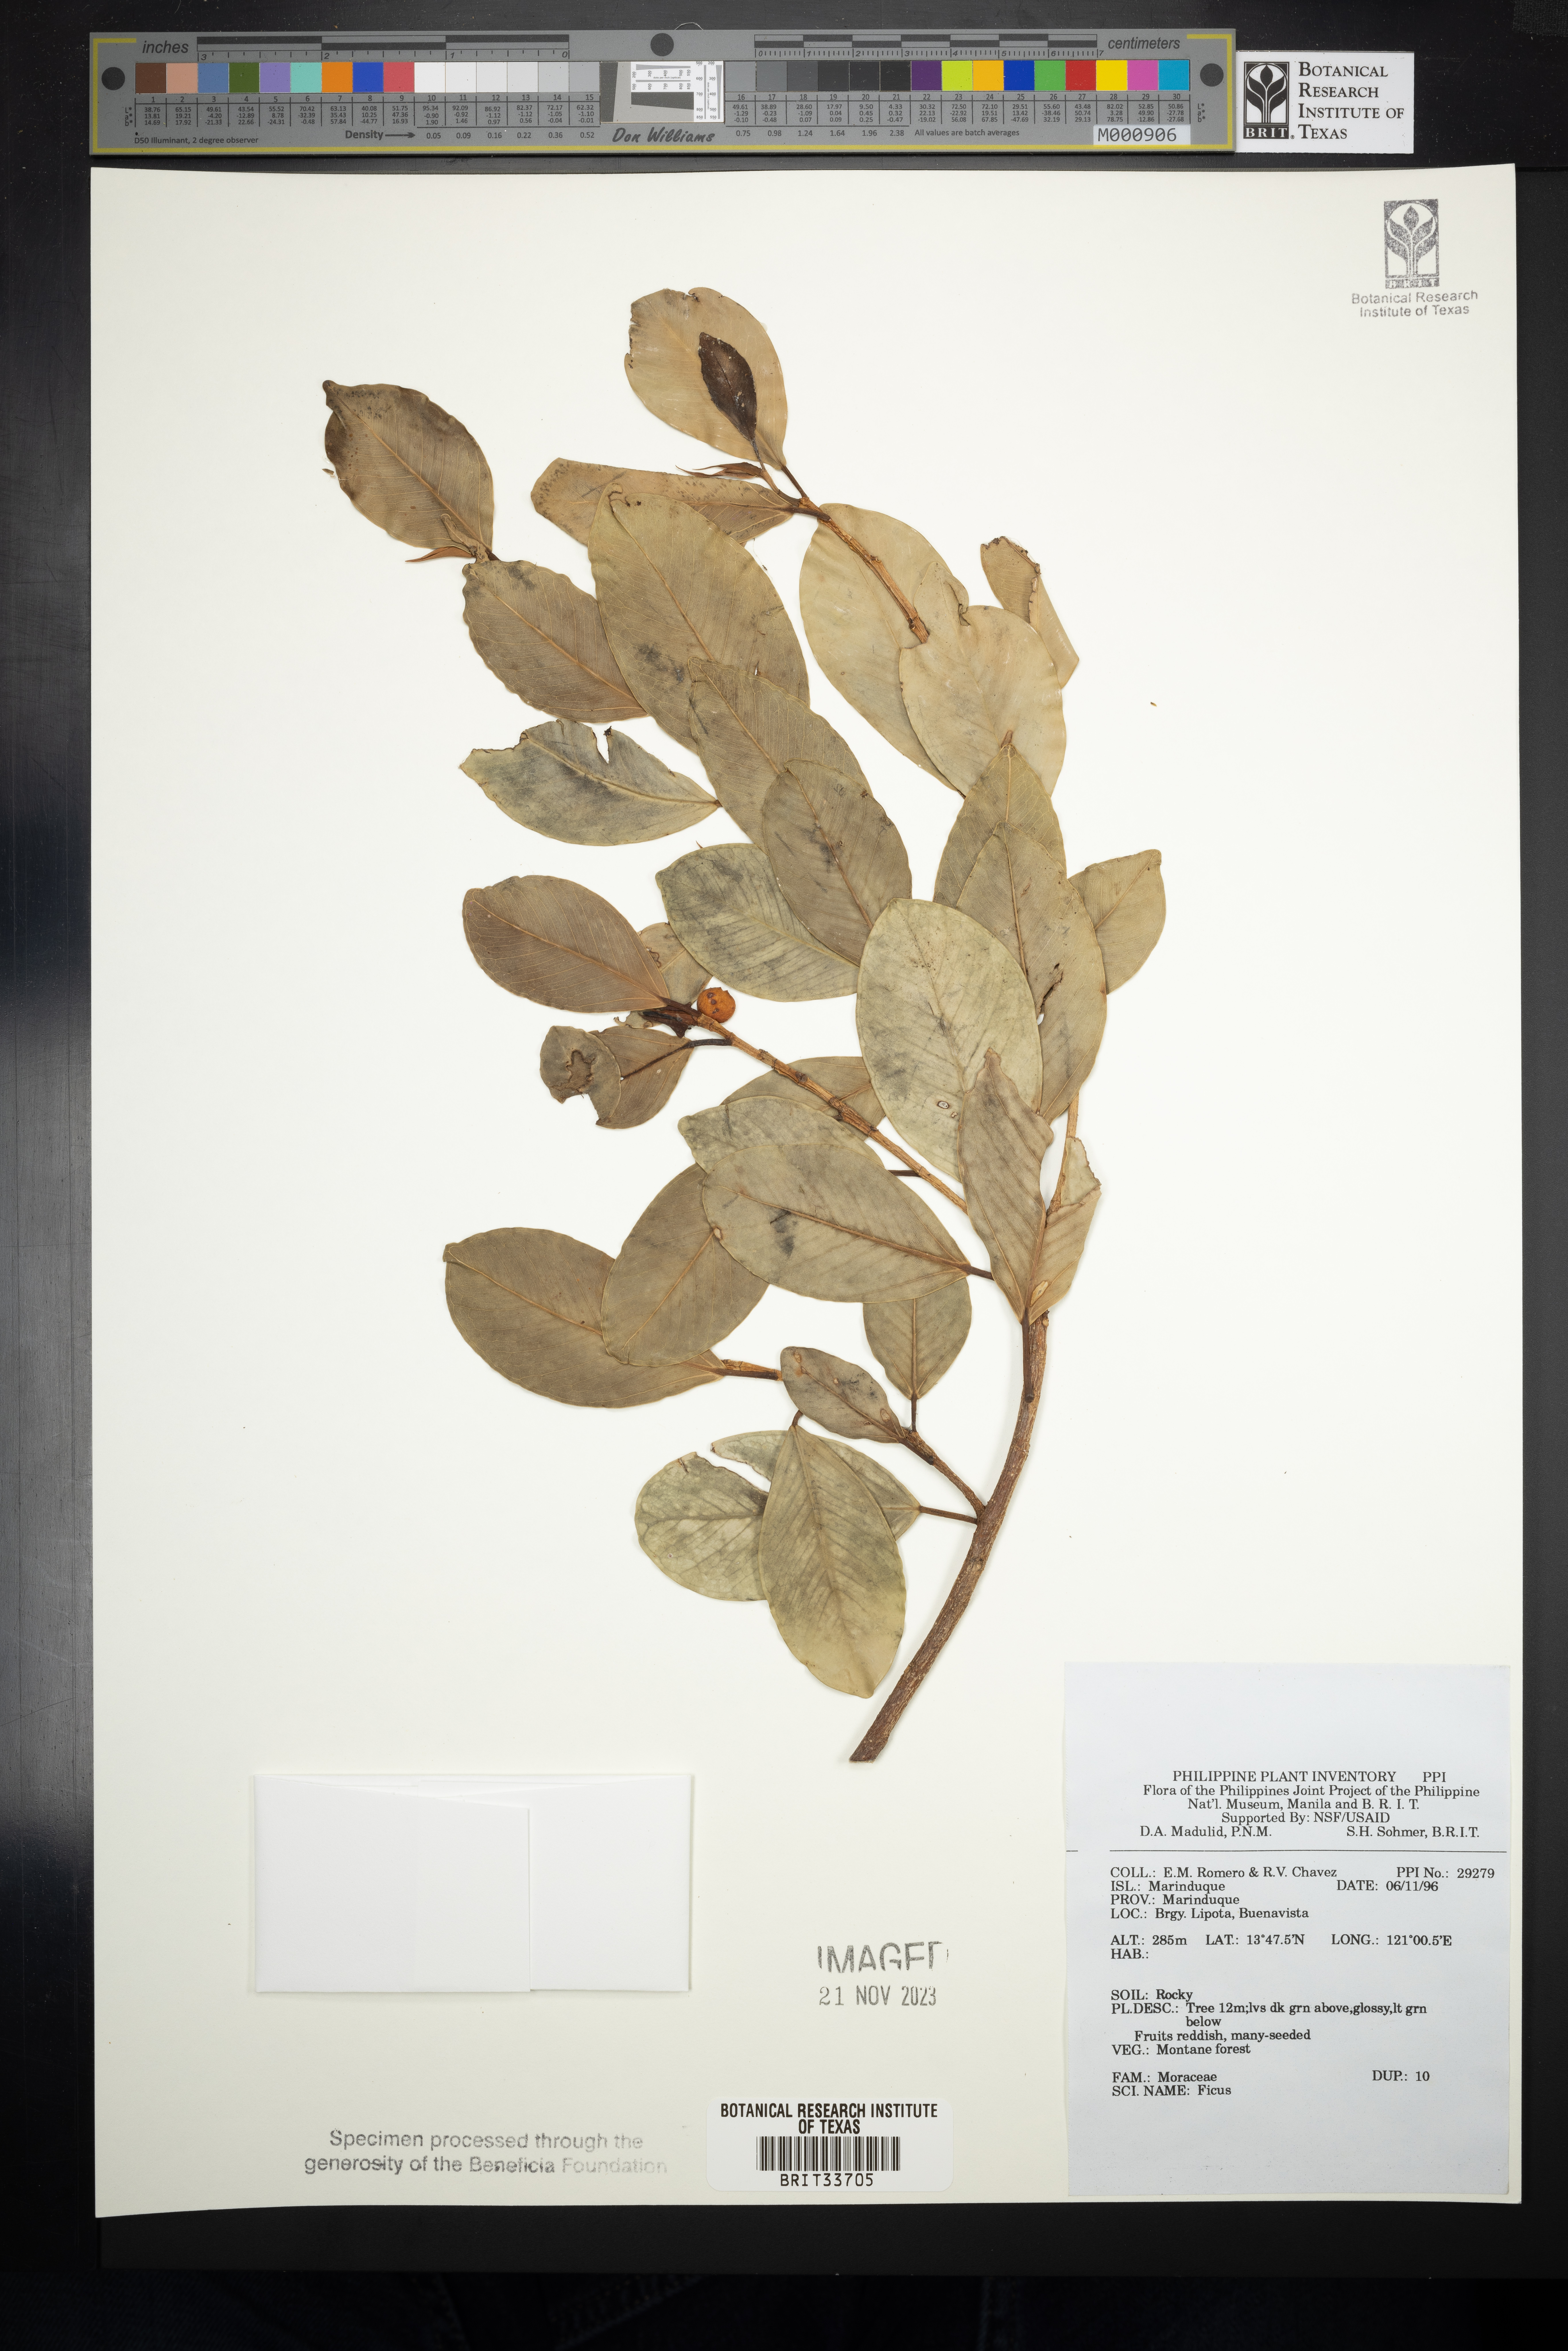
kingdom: Plantae
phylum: Tracheophyta
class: Magnoliopsida
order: Rosales
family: Moraceae
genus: Ficus
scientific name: Ficus
